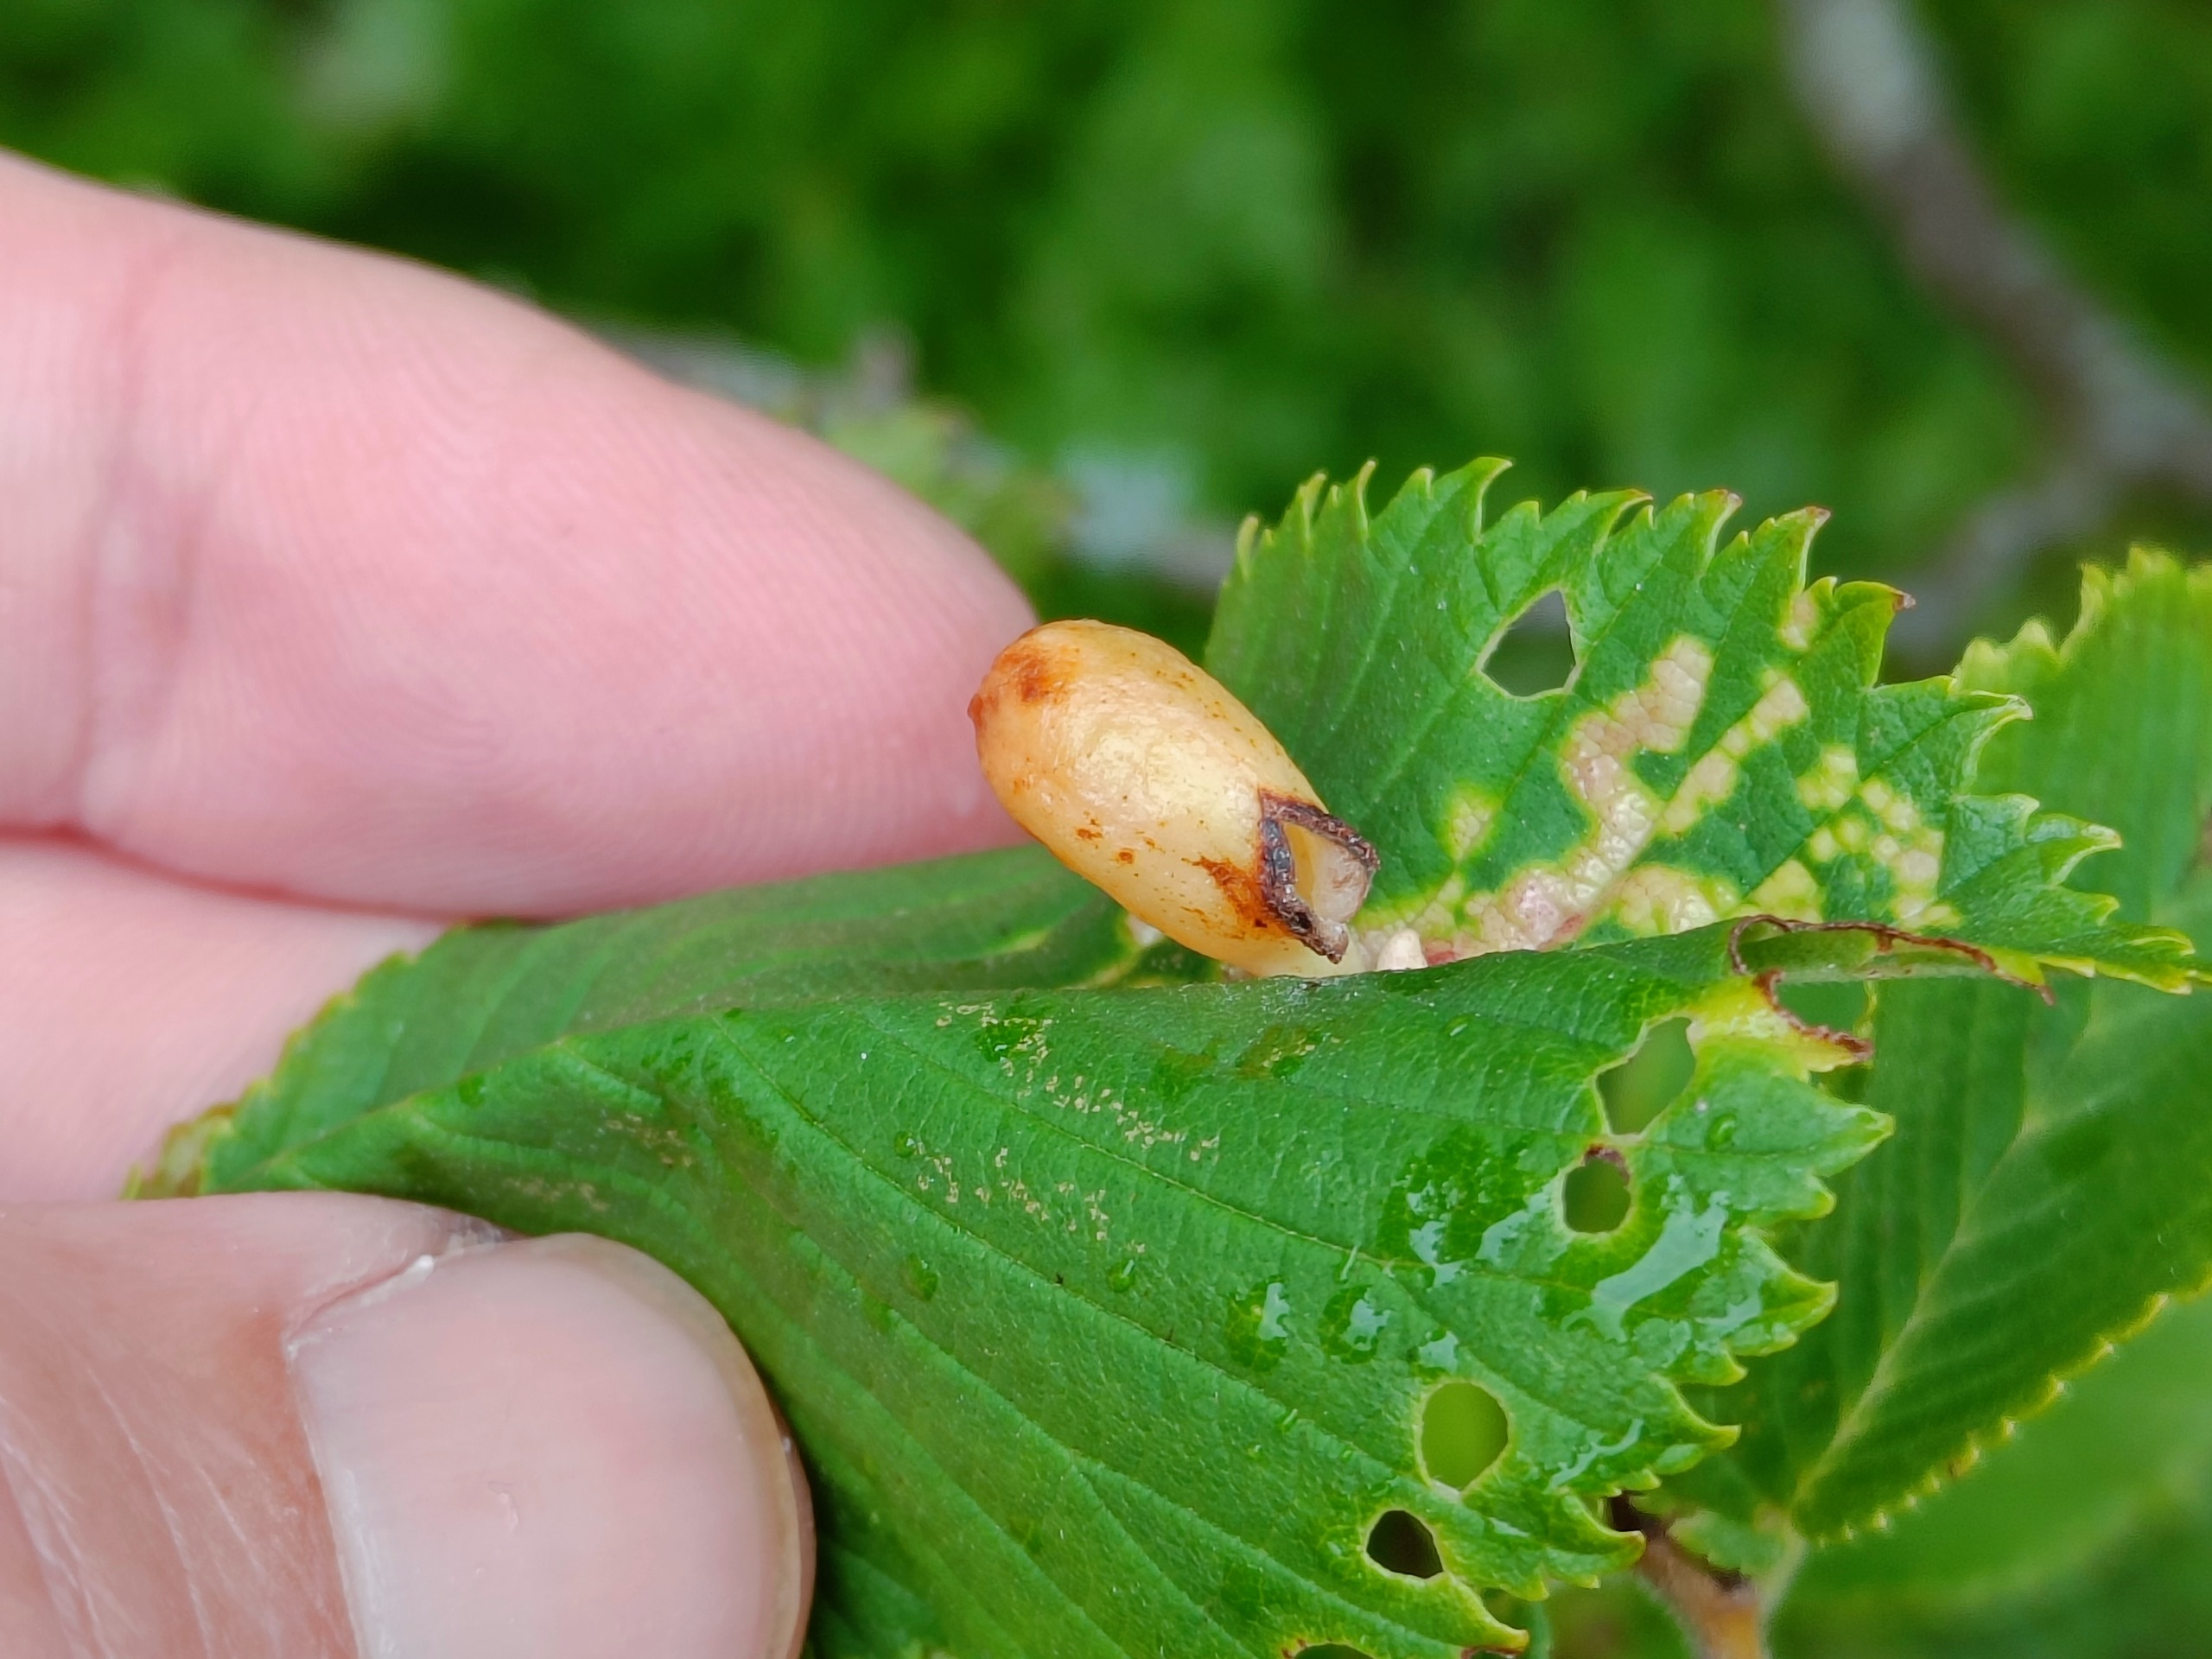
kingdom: Animalia
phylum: Arthropoda
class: Insecta
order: Hemiptera
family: Aphididae
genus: Tetraneura
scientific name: Tetraneura ulmi
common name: Elmegallelus
